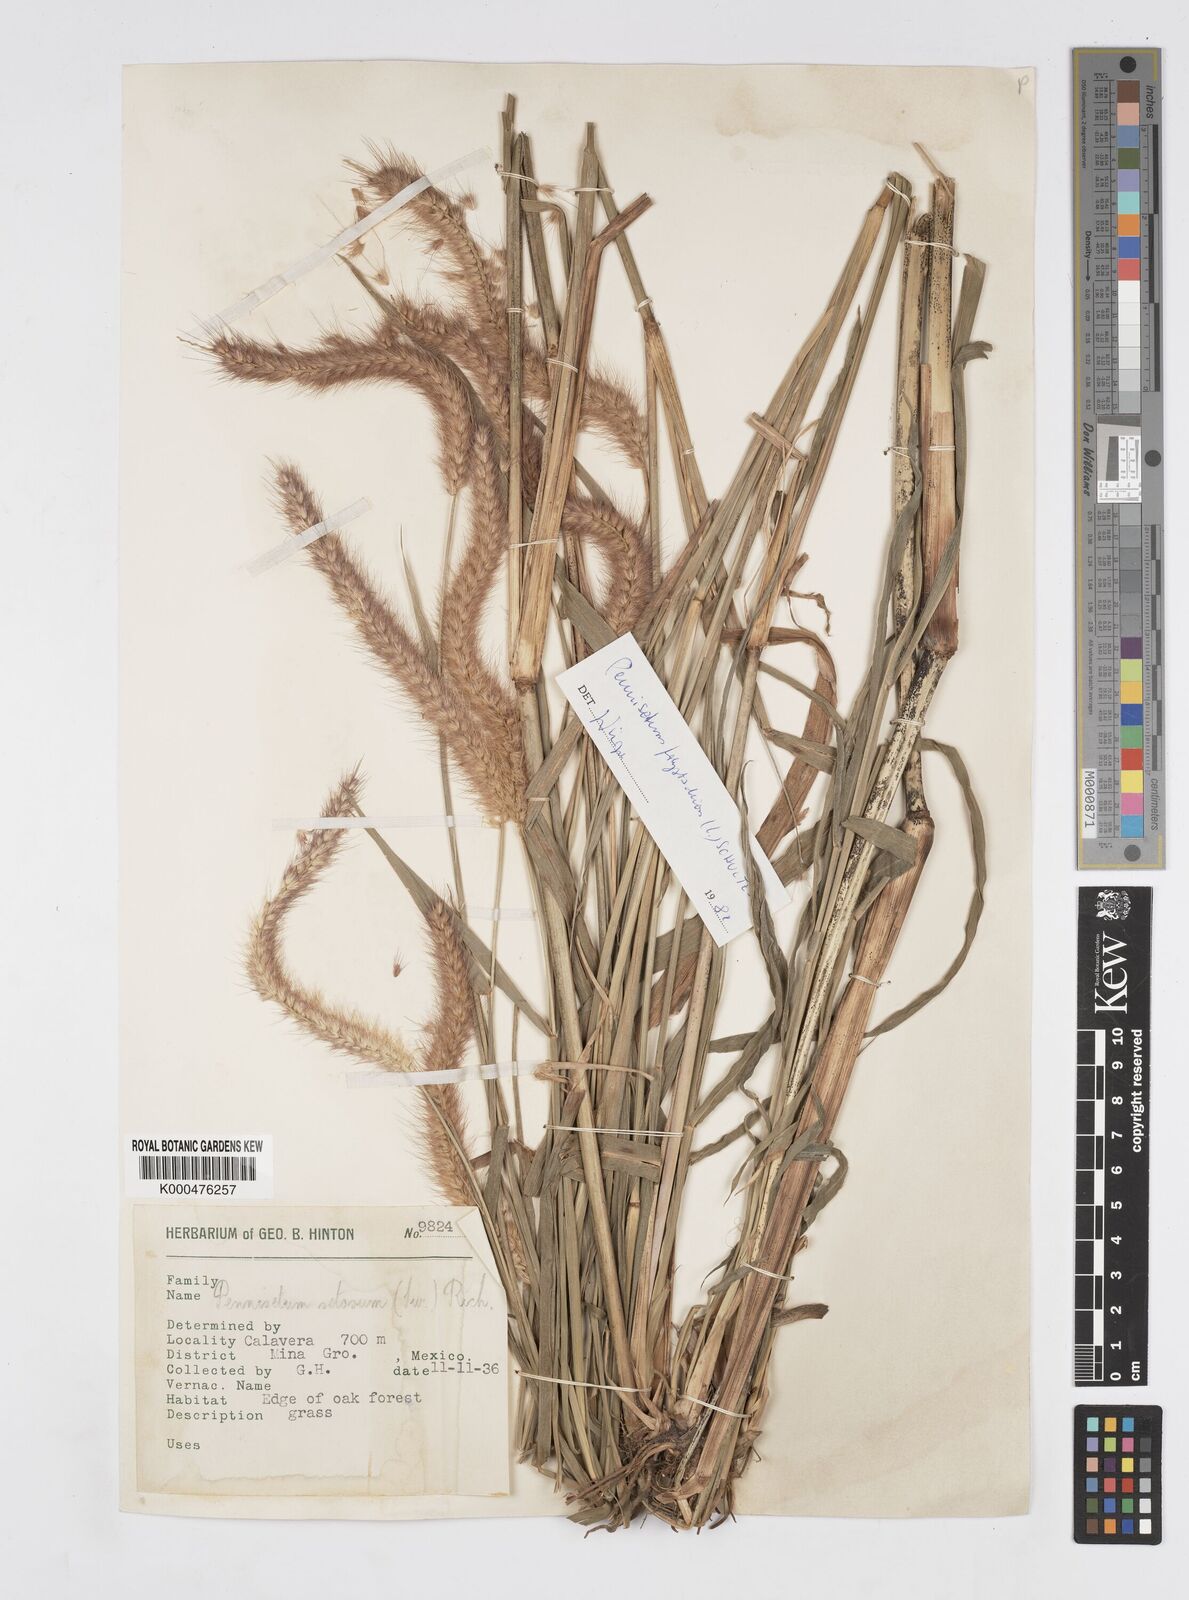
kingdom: Plantae
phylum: Tracheophyta
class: Liliopsida
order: Poales
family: Poaceae
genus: Setaria
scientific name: Setaria parviflora
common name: Knotroot bristle-grass
